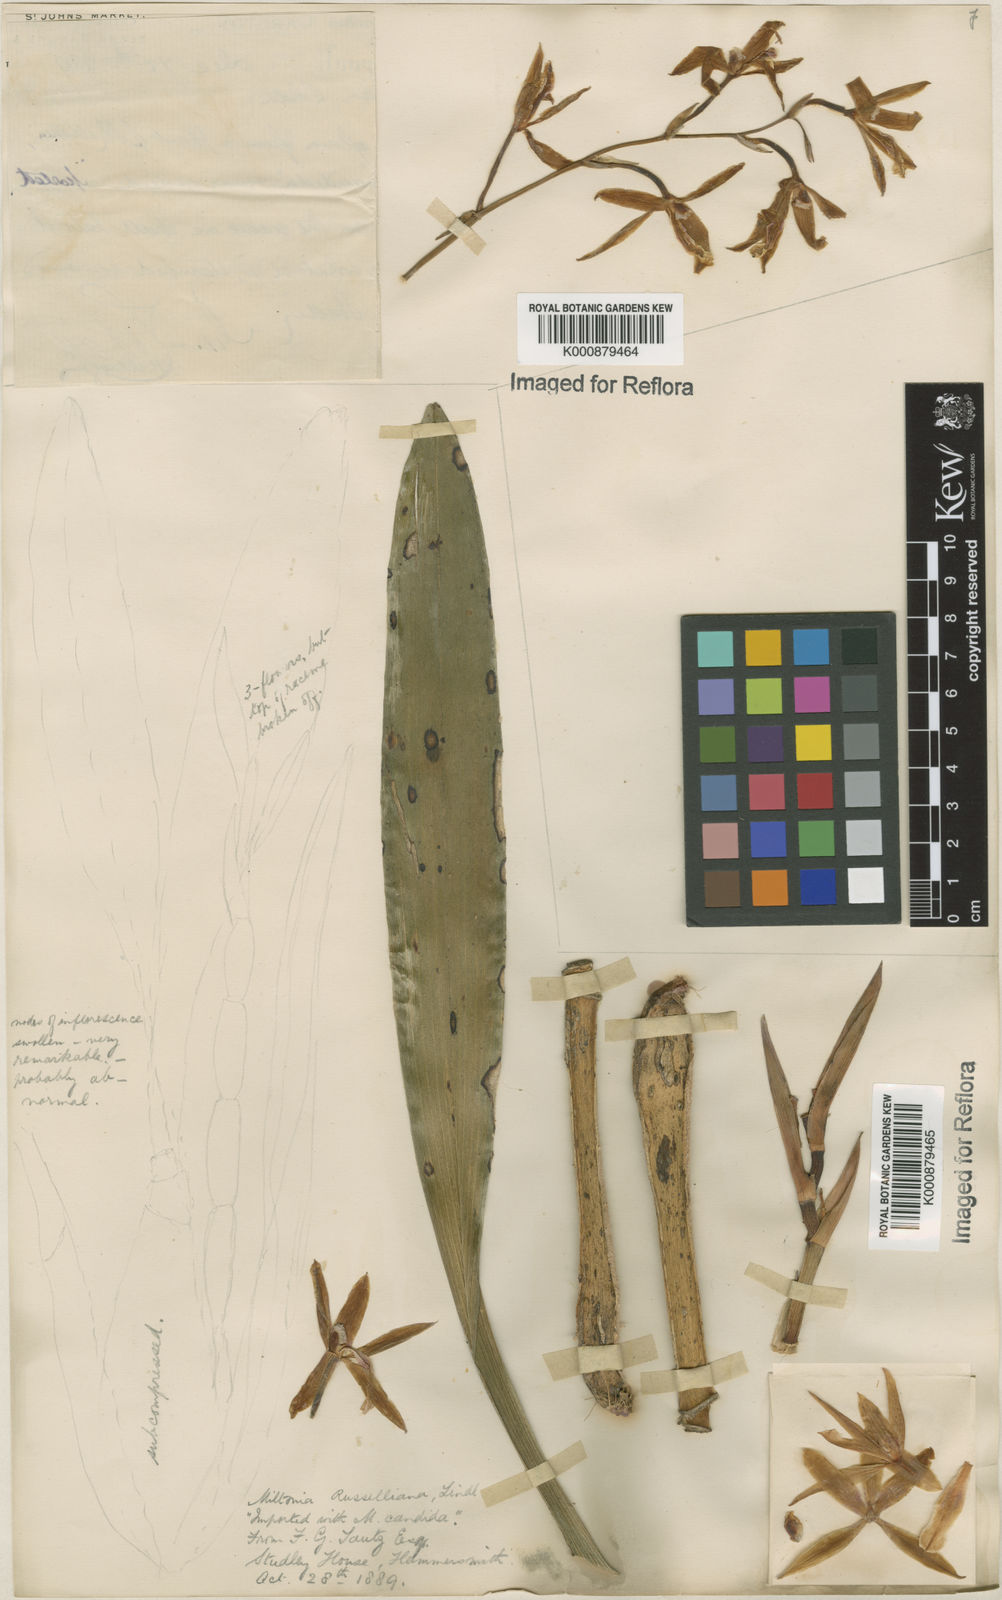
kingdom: Plantae
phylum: Tracheophyta
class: Liliopsida
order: Asparagales
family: Orchidaceae
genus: Miltonia
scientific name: Miltonia russelliana
